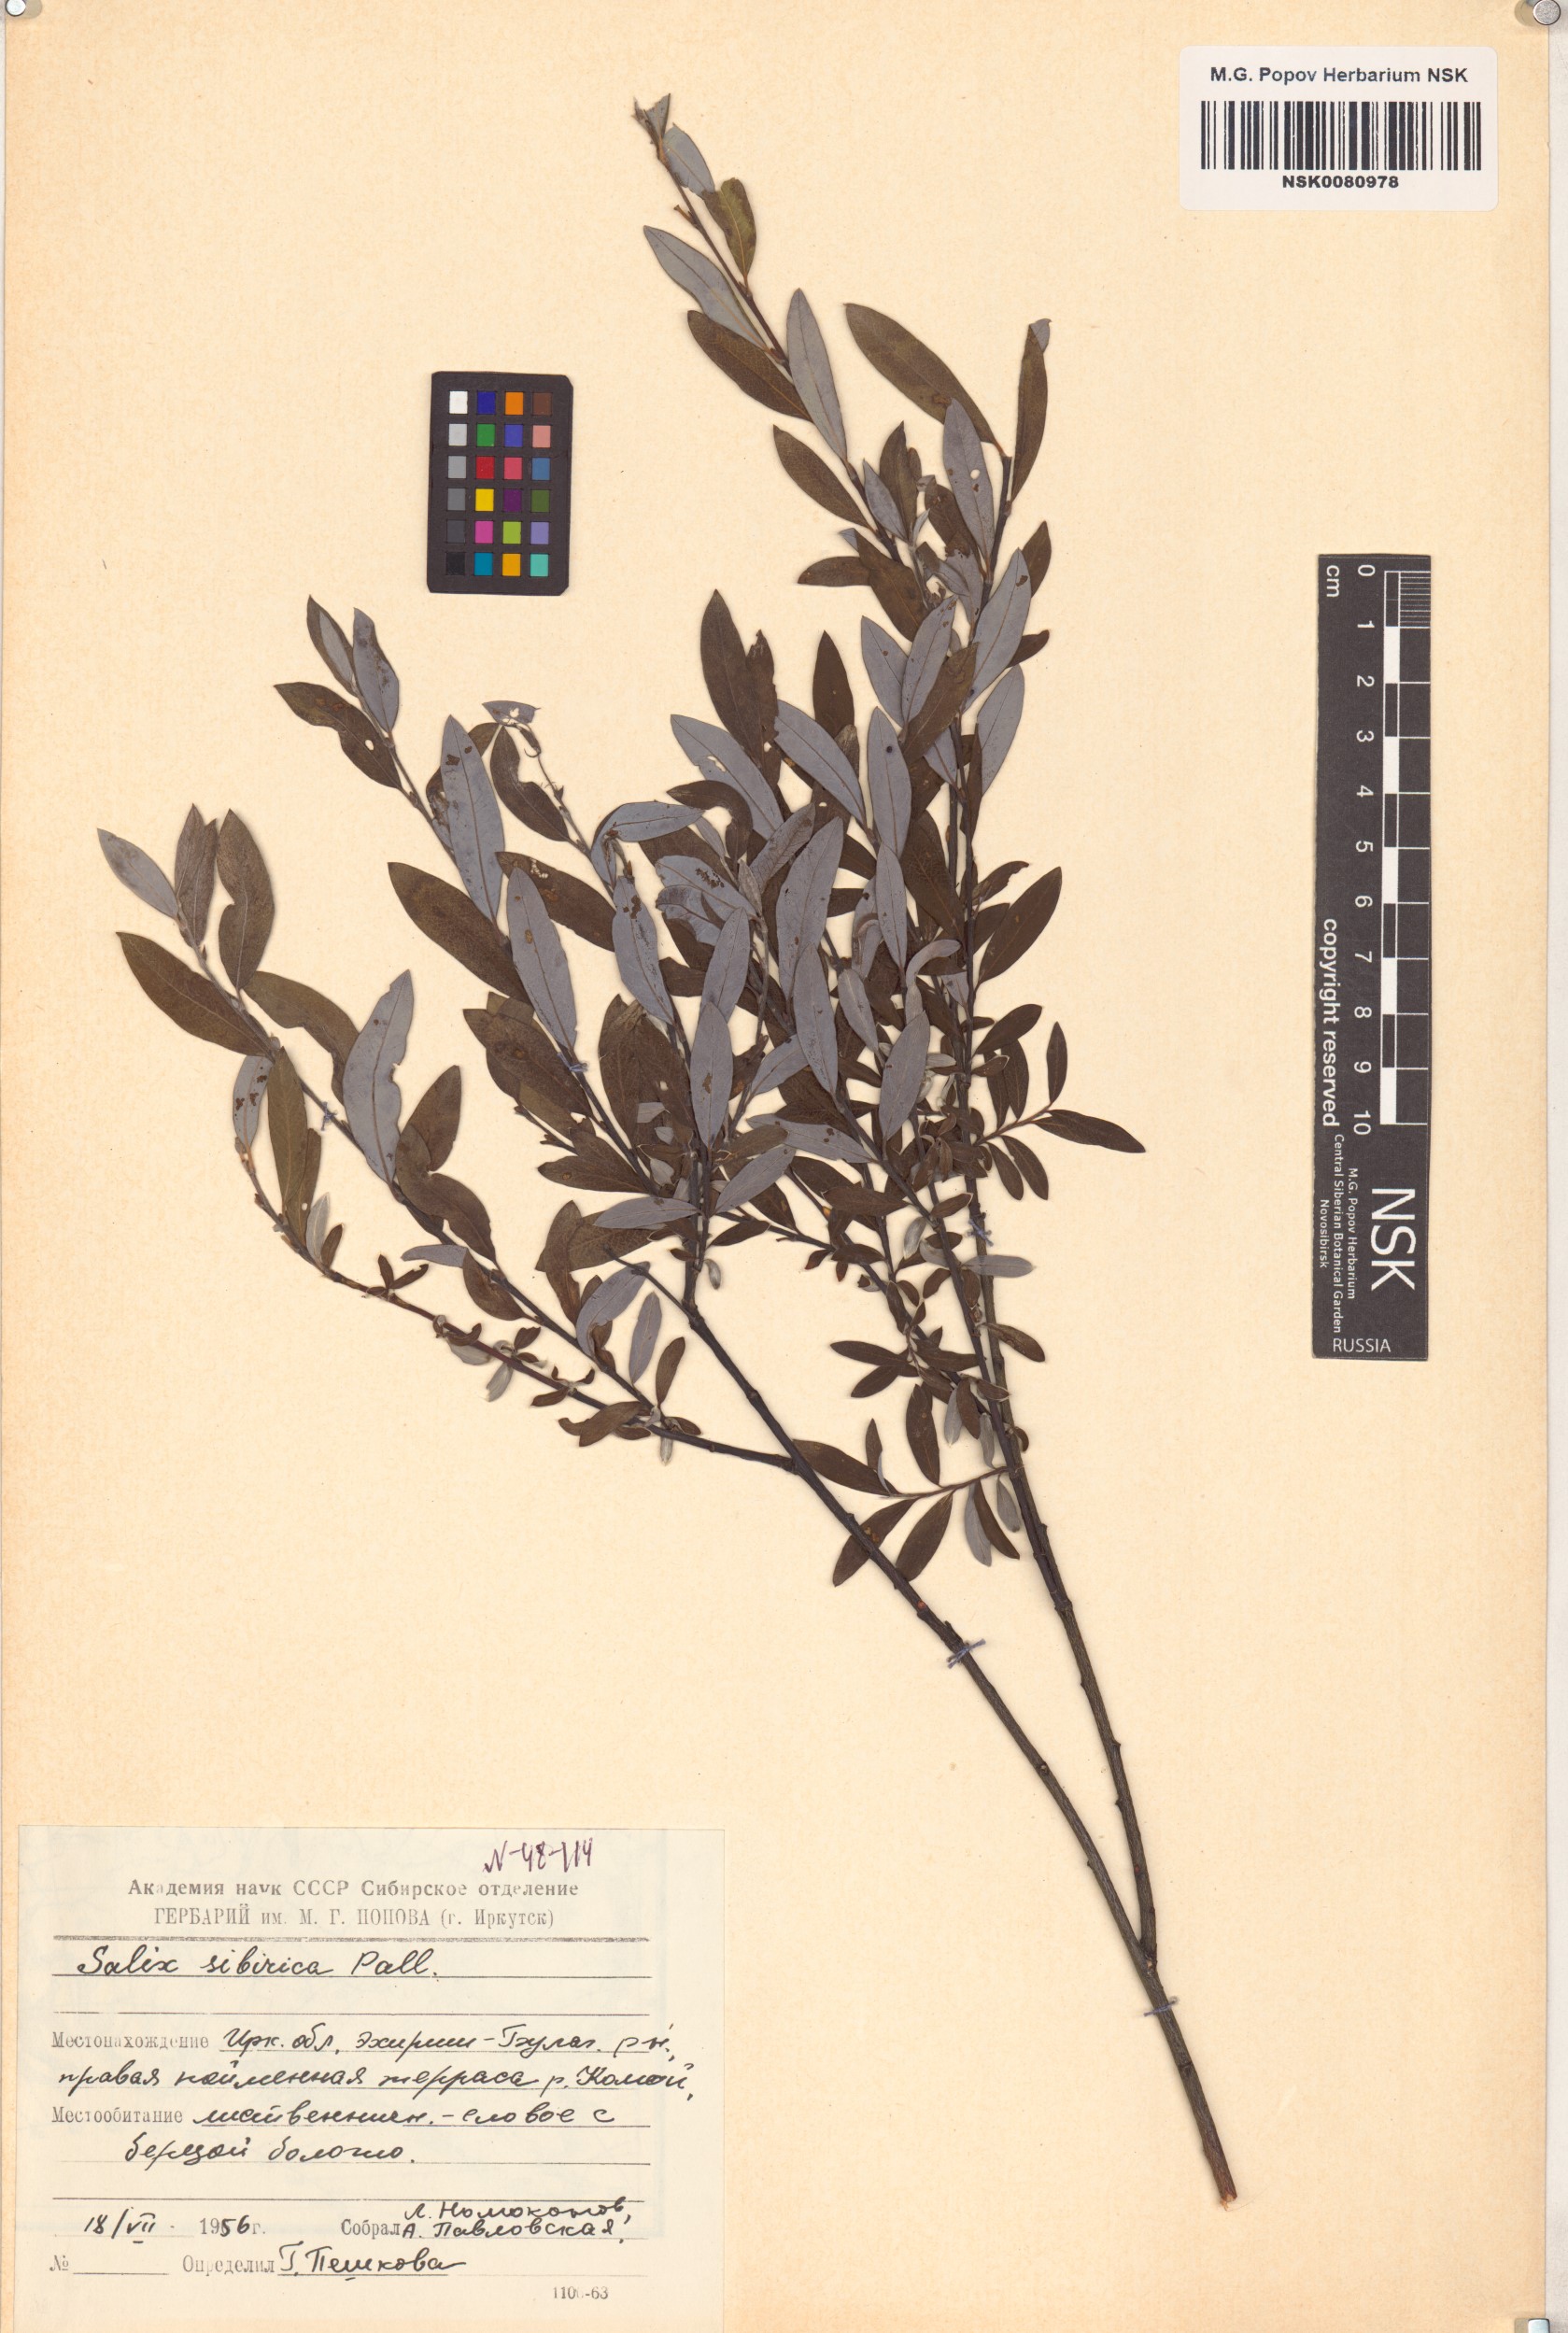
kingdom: Plantae
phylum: Tracheophyta
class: Magnoliopsida
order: Malpighiales
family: Salicaceae
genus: Salix
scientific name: Salix rosmarinifolia
